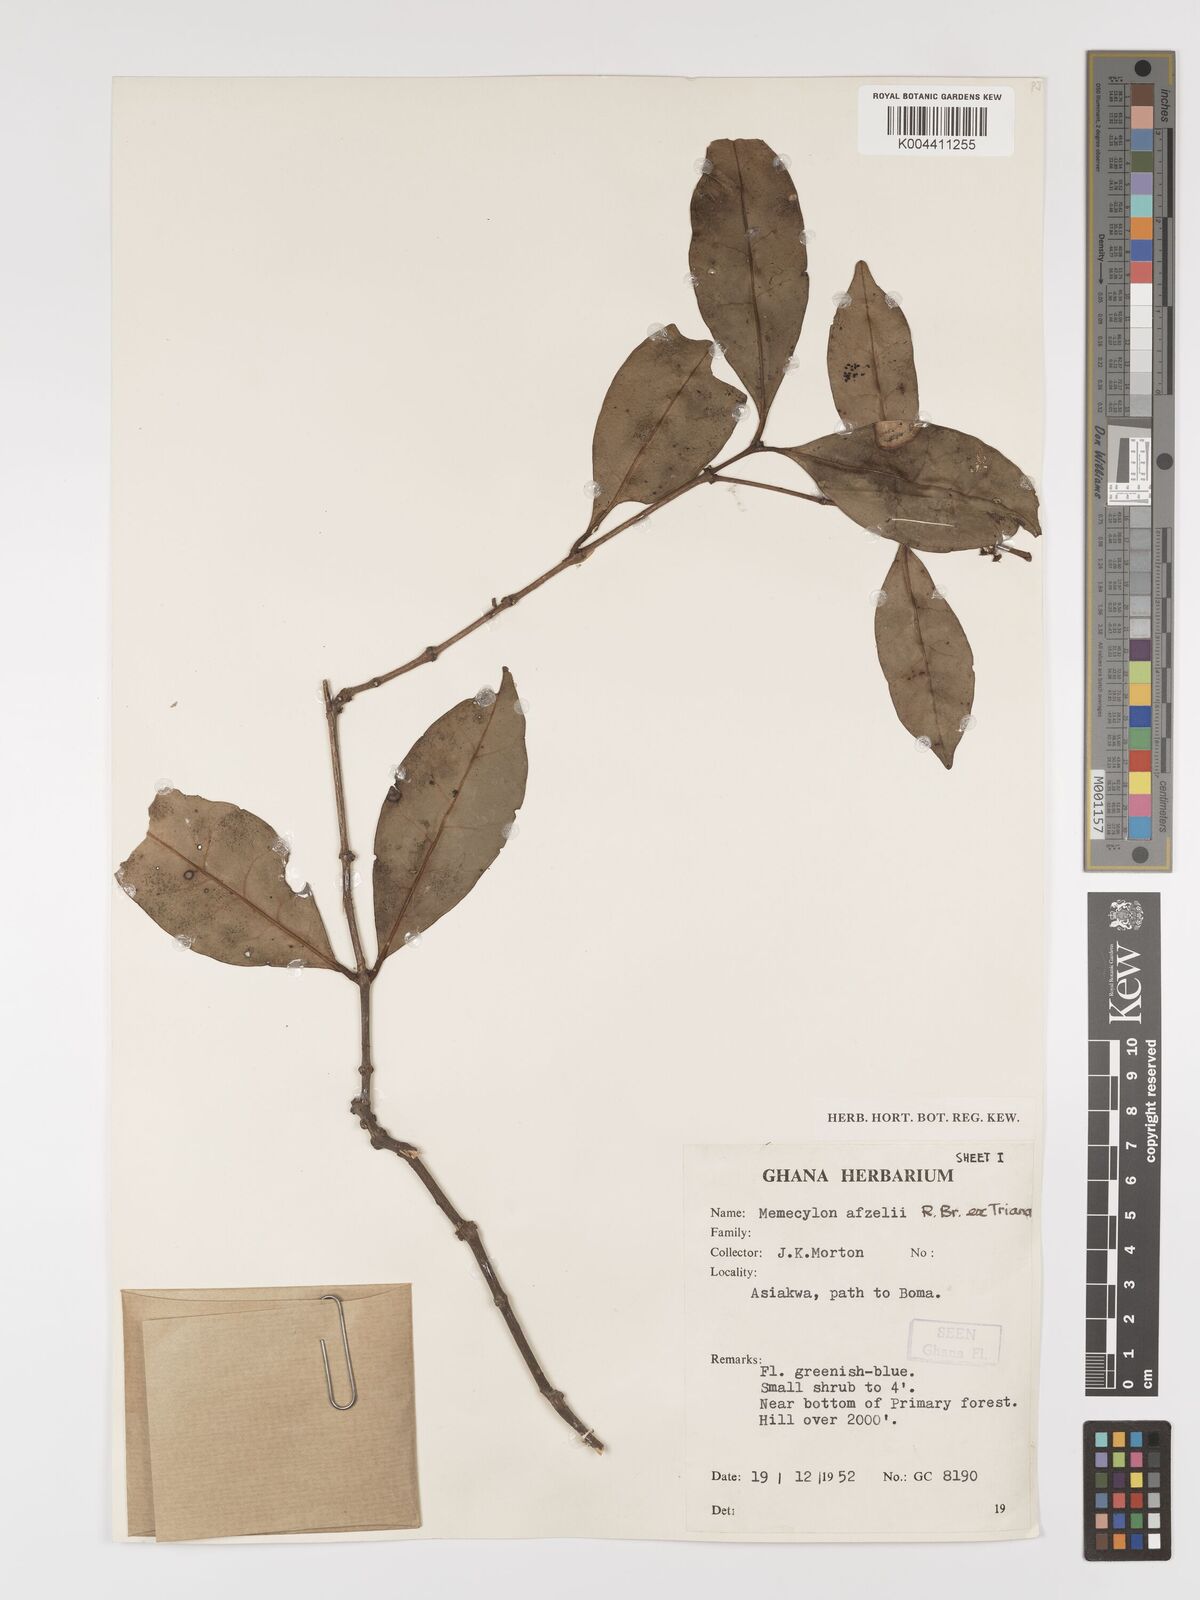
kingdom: Plantae
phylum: Tracheophyta
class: Magnoliopsida
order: Myrtales
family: Melastomataceae
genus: Memecylon
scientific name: Memecylon afzelii
